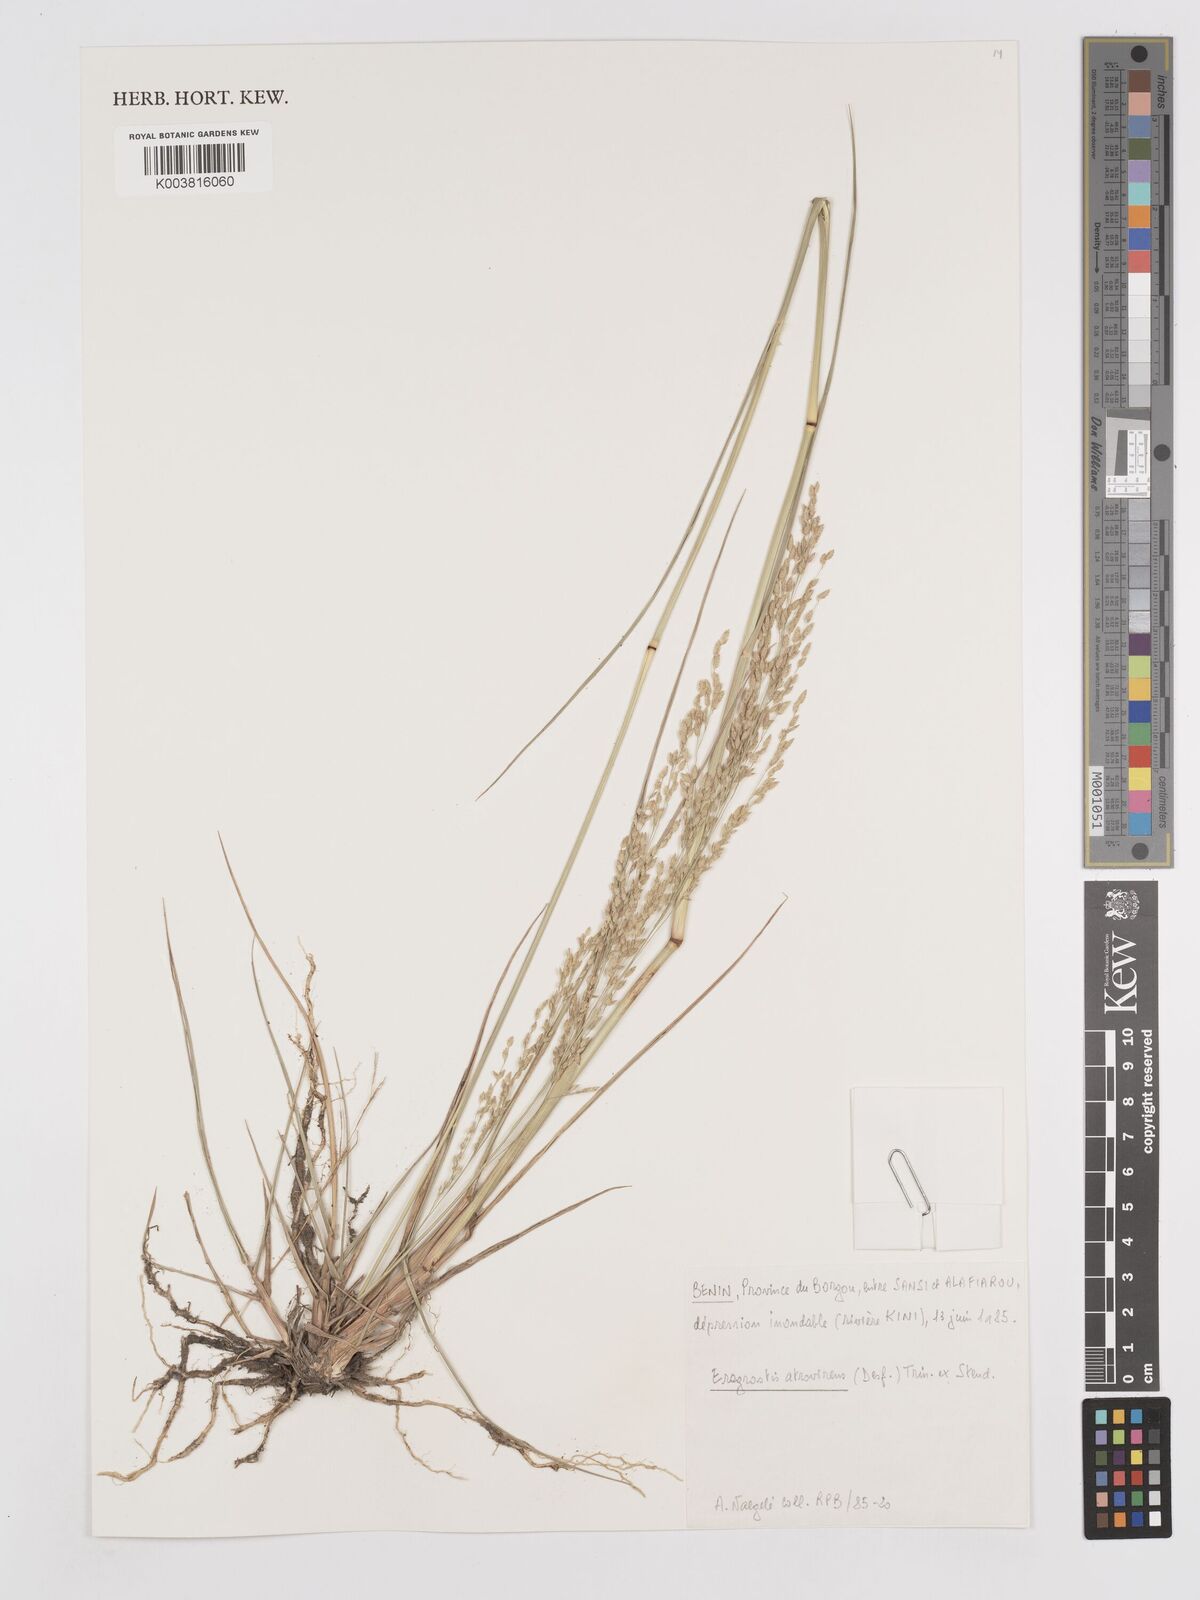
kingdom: Plantae
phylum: Tracheophyta
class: Liliopsida
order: Poales
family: Poaceae
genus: Eragrostis
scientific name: Eragrostis atrovirens
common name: Thalia lovegrass
